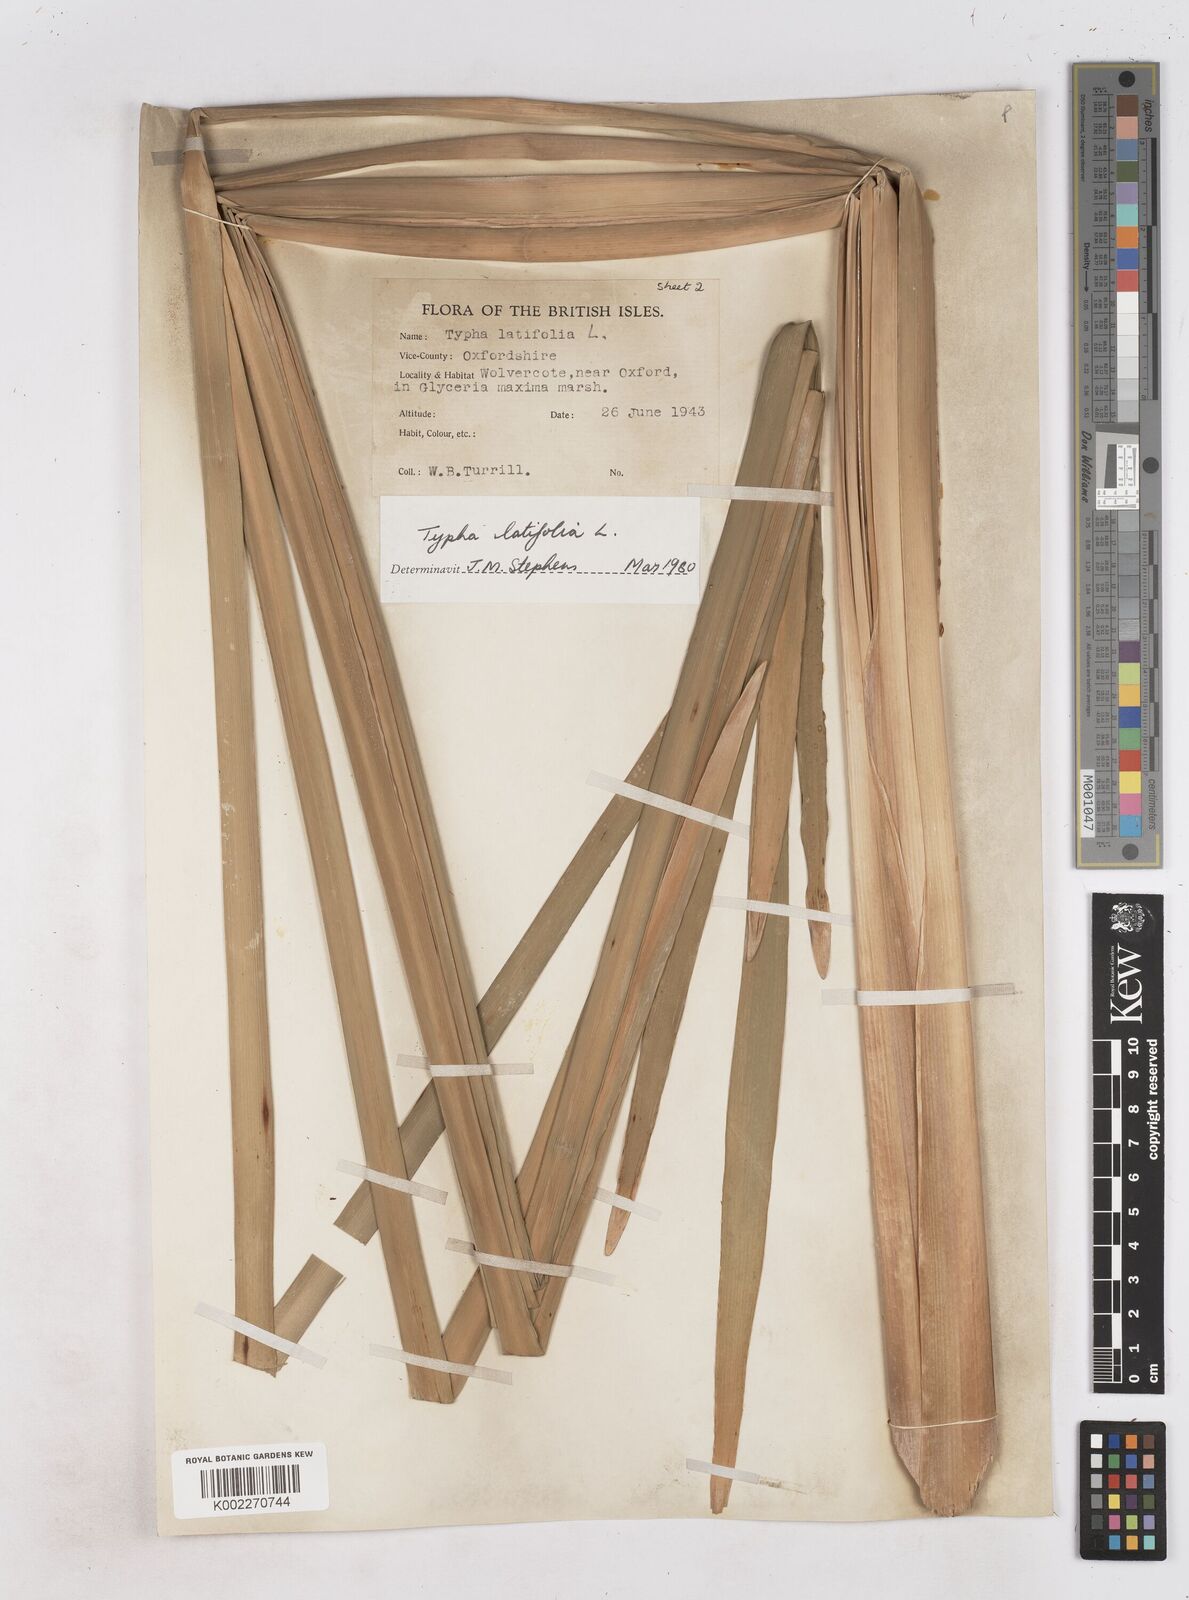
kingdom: Plantae
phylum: Tracheophyta
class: Liliopsida
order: Poales
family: Typhaceae
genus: Typha
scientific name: Typha latifolia
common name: Broadleaf cattail
